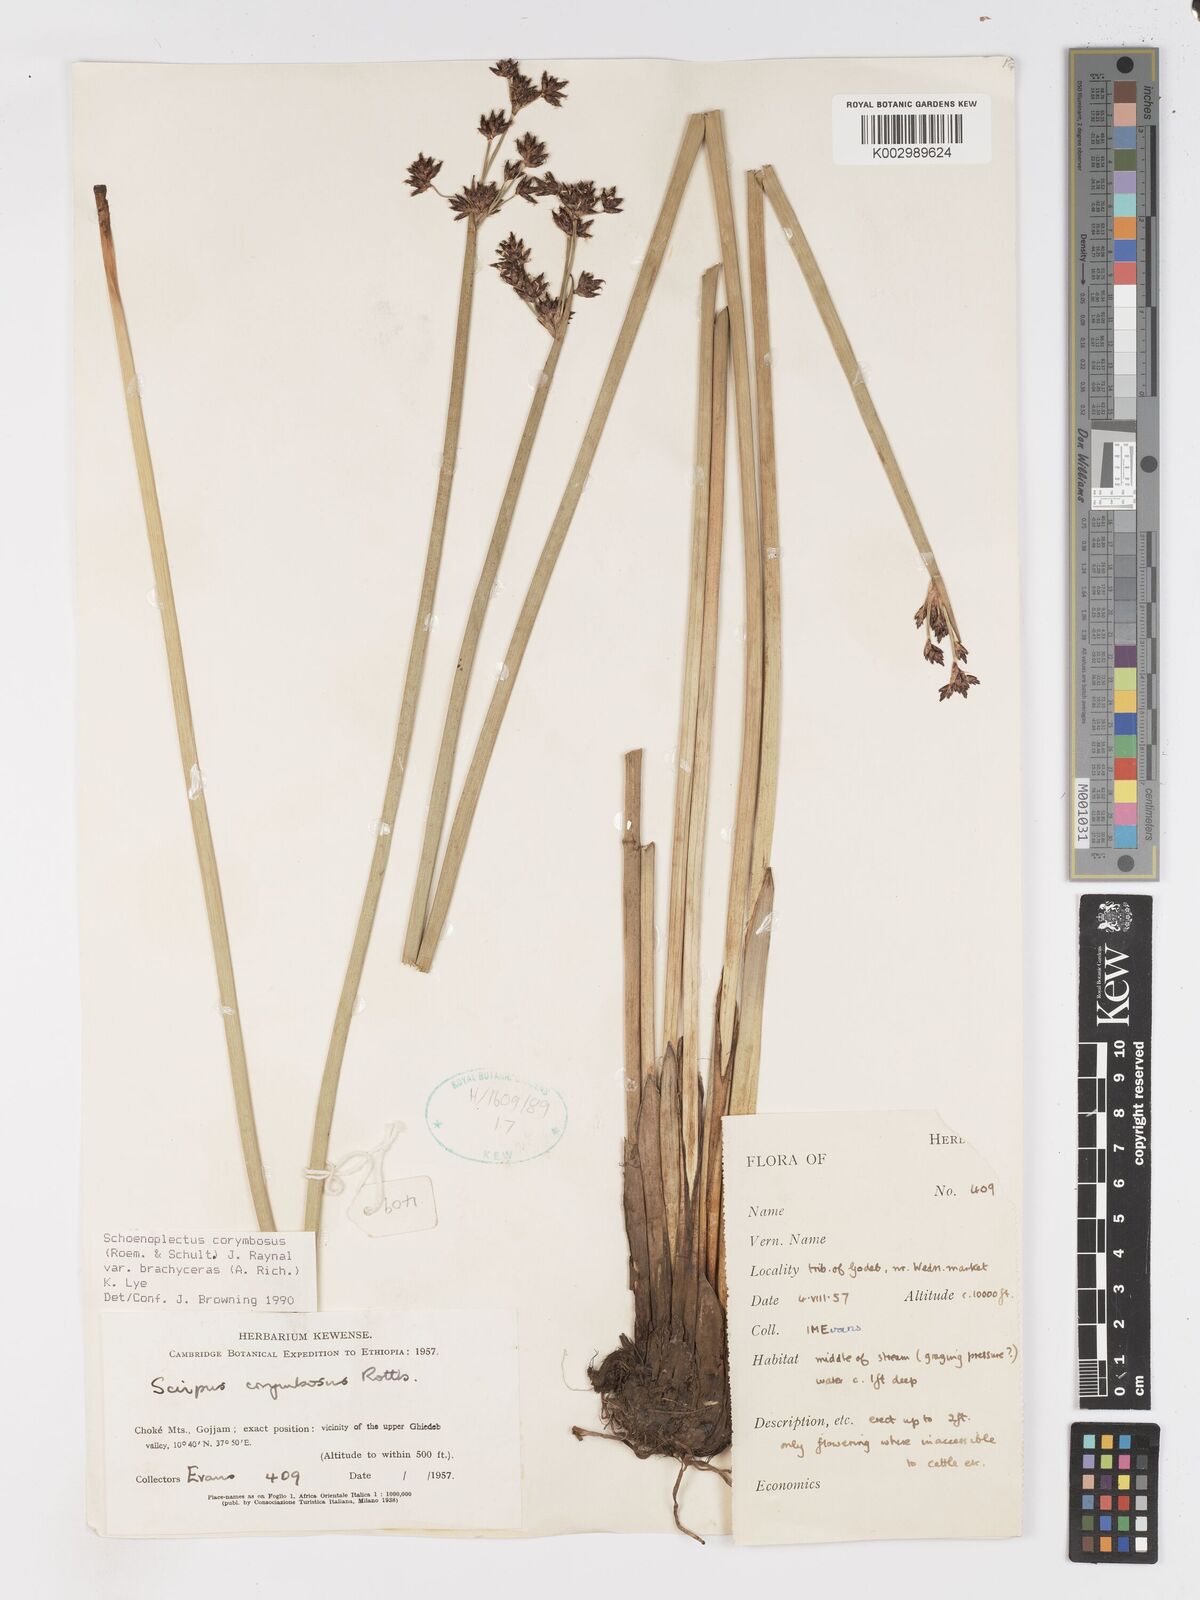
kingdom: Plantae
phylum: Tracheophyta
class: Liliopsida
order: Poales
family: Cyperaceae
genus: Schoenoplectiella
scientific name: Schoenoplectiella brachyceras
